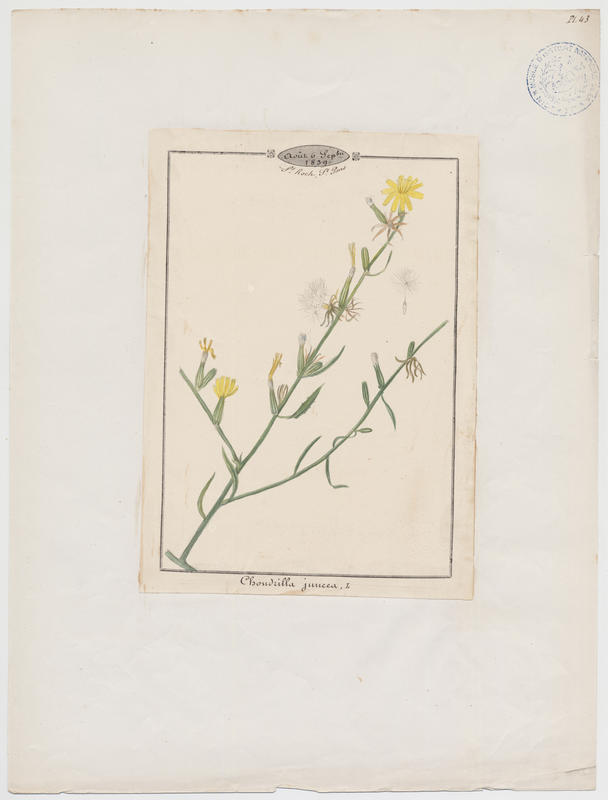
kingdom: Plantae
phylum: Tracheophyta
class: Magnoliopsida
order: Asterales
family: Asteraceae
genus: Chondrilla
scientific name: Chondrilla juncea
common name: Skeleton weed
